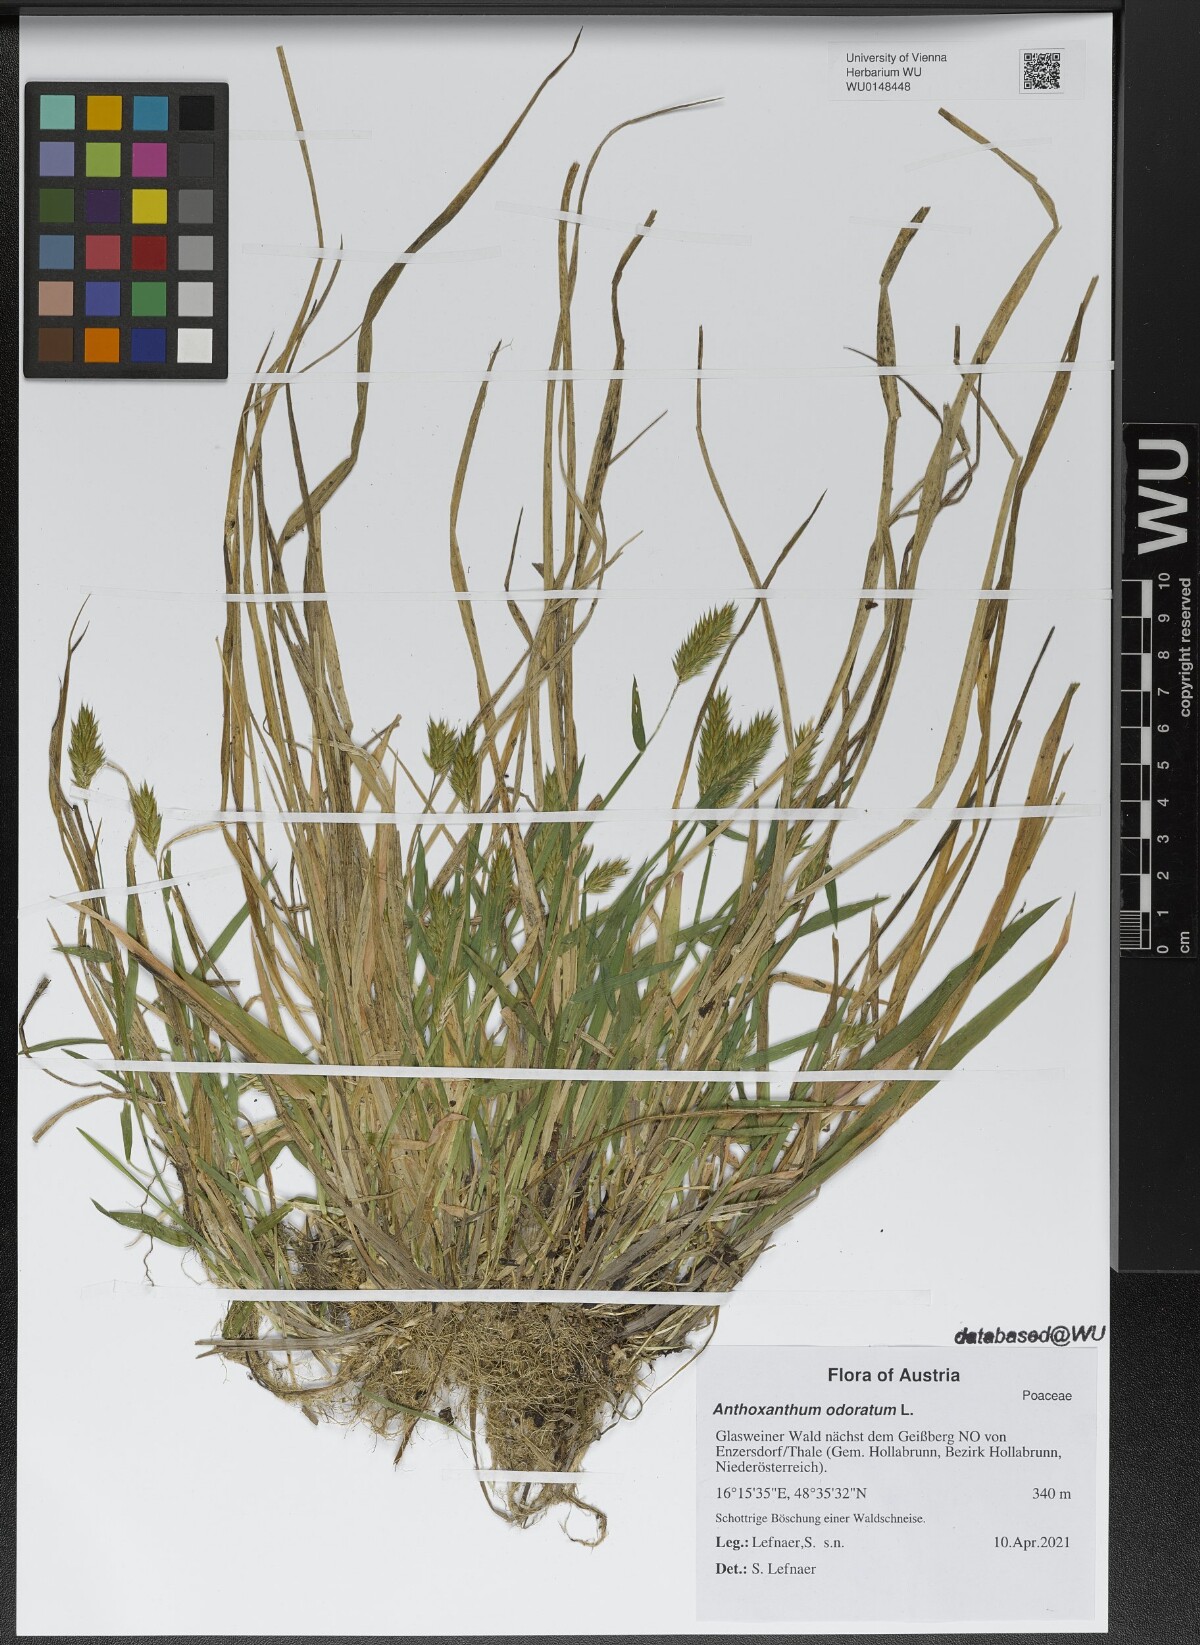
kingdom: Plantae
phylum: Tracheophyta
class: Liliopsida
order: Poales
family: Poaceae
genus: Anthoxanthum
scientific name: Anthoxanthum odoratum
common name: Sweet vernalgrass
